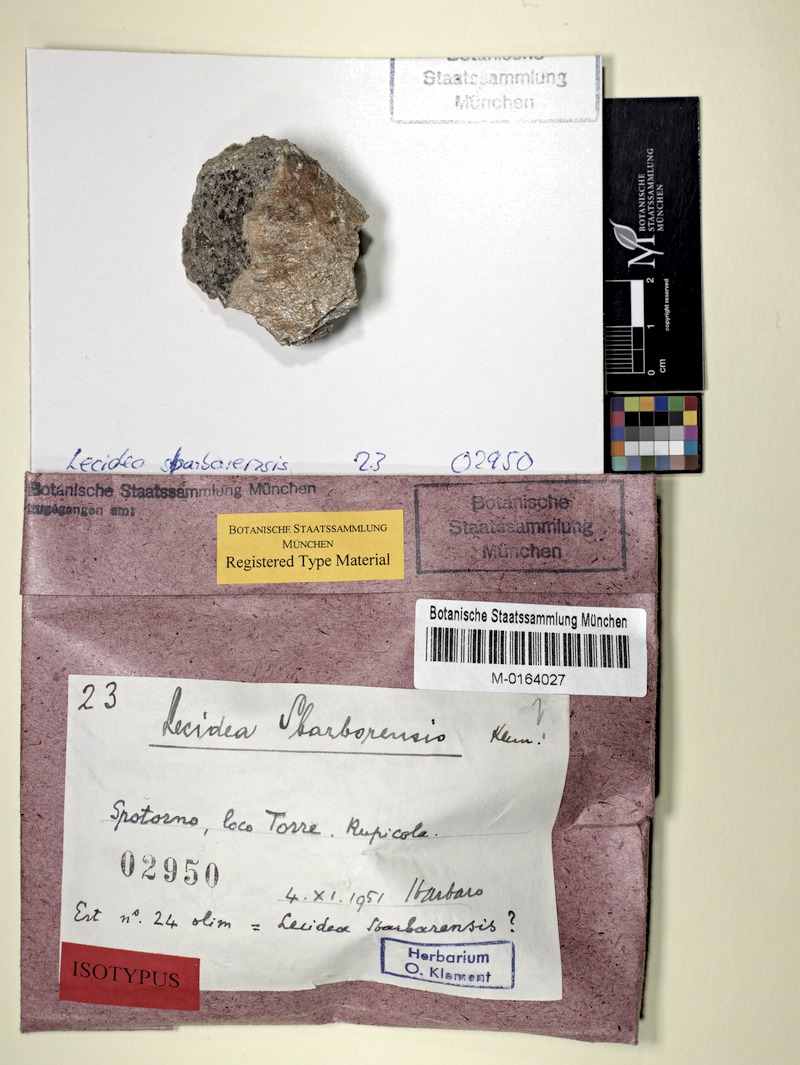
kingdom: Fungi
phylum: Ascomycota
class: Lecanoromycetes
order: Lecideales
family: Lecideaceae
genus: Lecidea
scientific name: Lecidea
